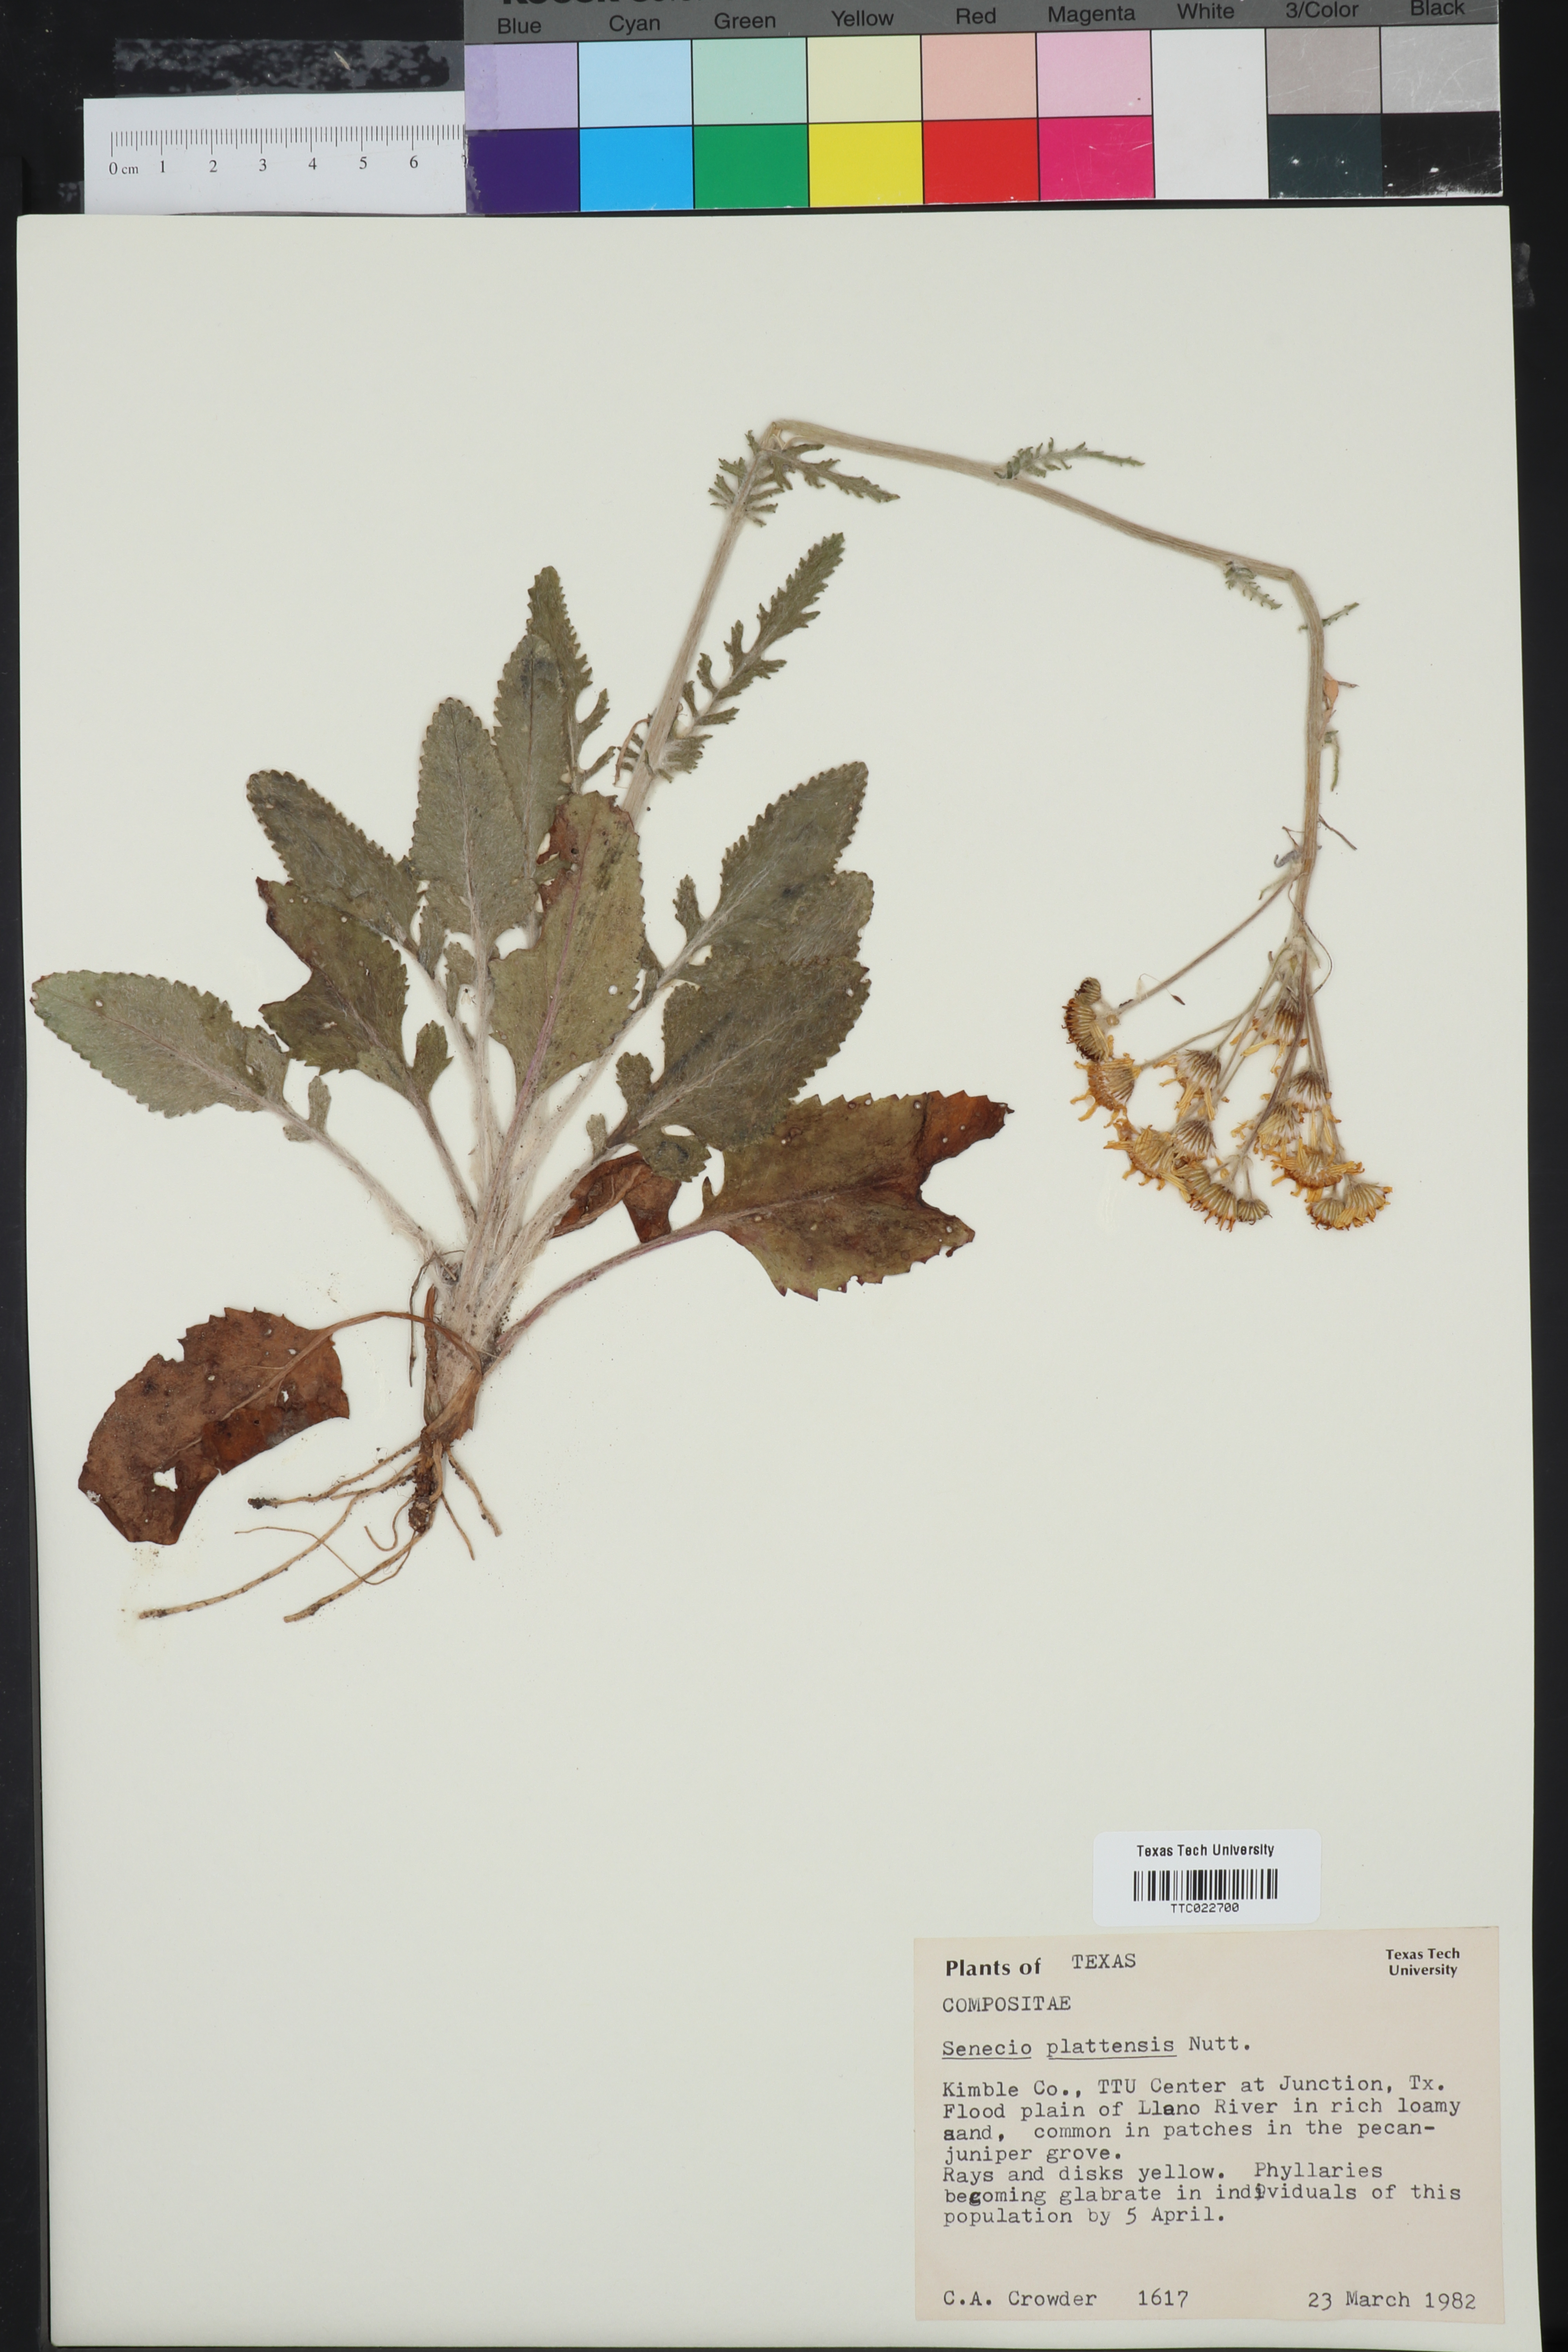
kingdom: Plantae
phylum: Tracheophyta
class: Magnoliopsida
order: Asterales
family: Asteraceae
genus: Packera
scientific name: Packera plattensis
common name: Prairie groundsel
